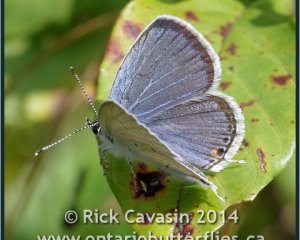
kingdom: Animalia
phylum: Arthropoda
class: Insecta
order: Lepidoptera
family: Lycaenidae
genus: Elkalyce
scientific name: Elkalyce comyntas
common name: Eastern Tailed-Blue
